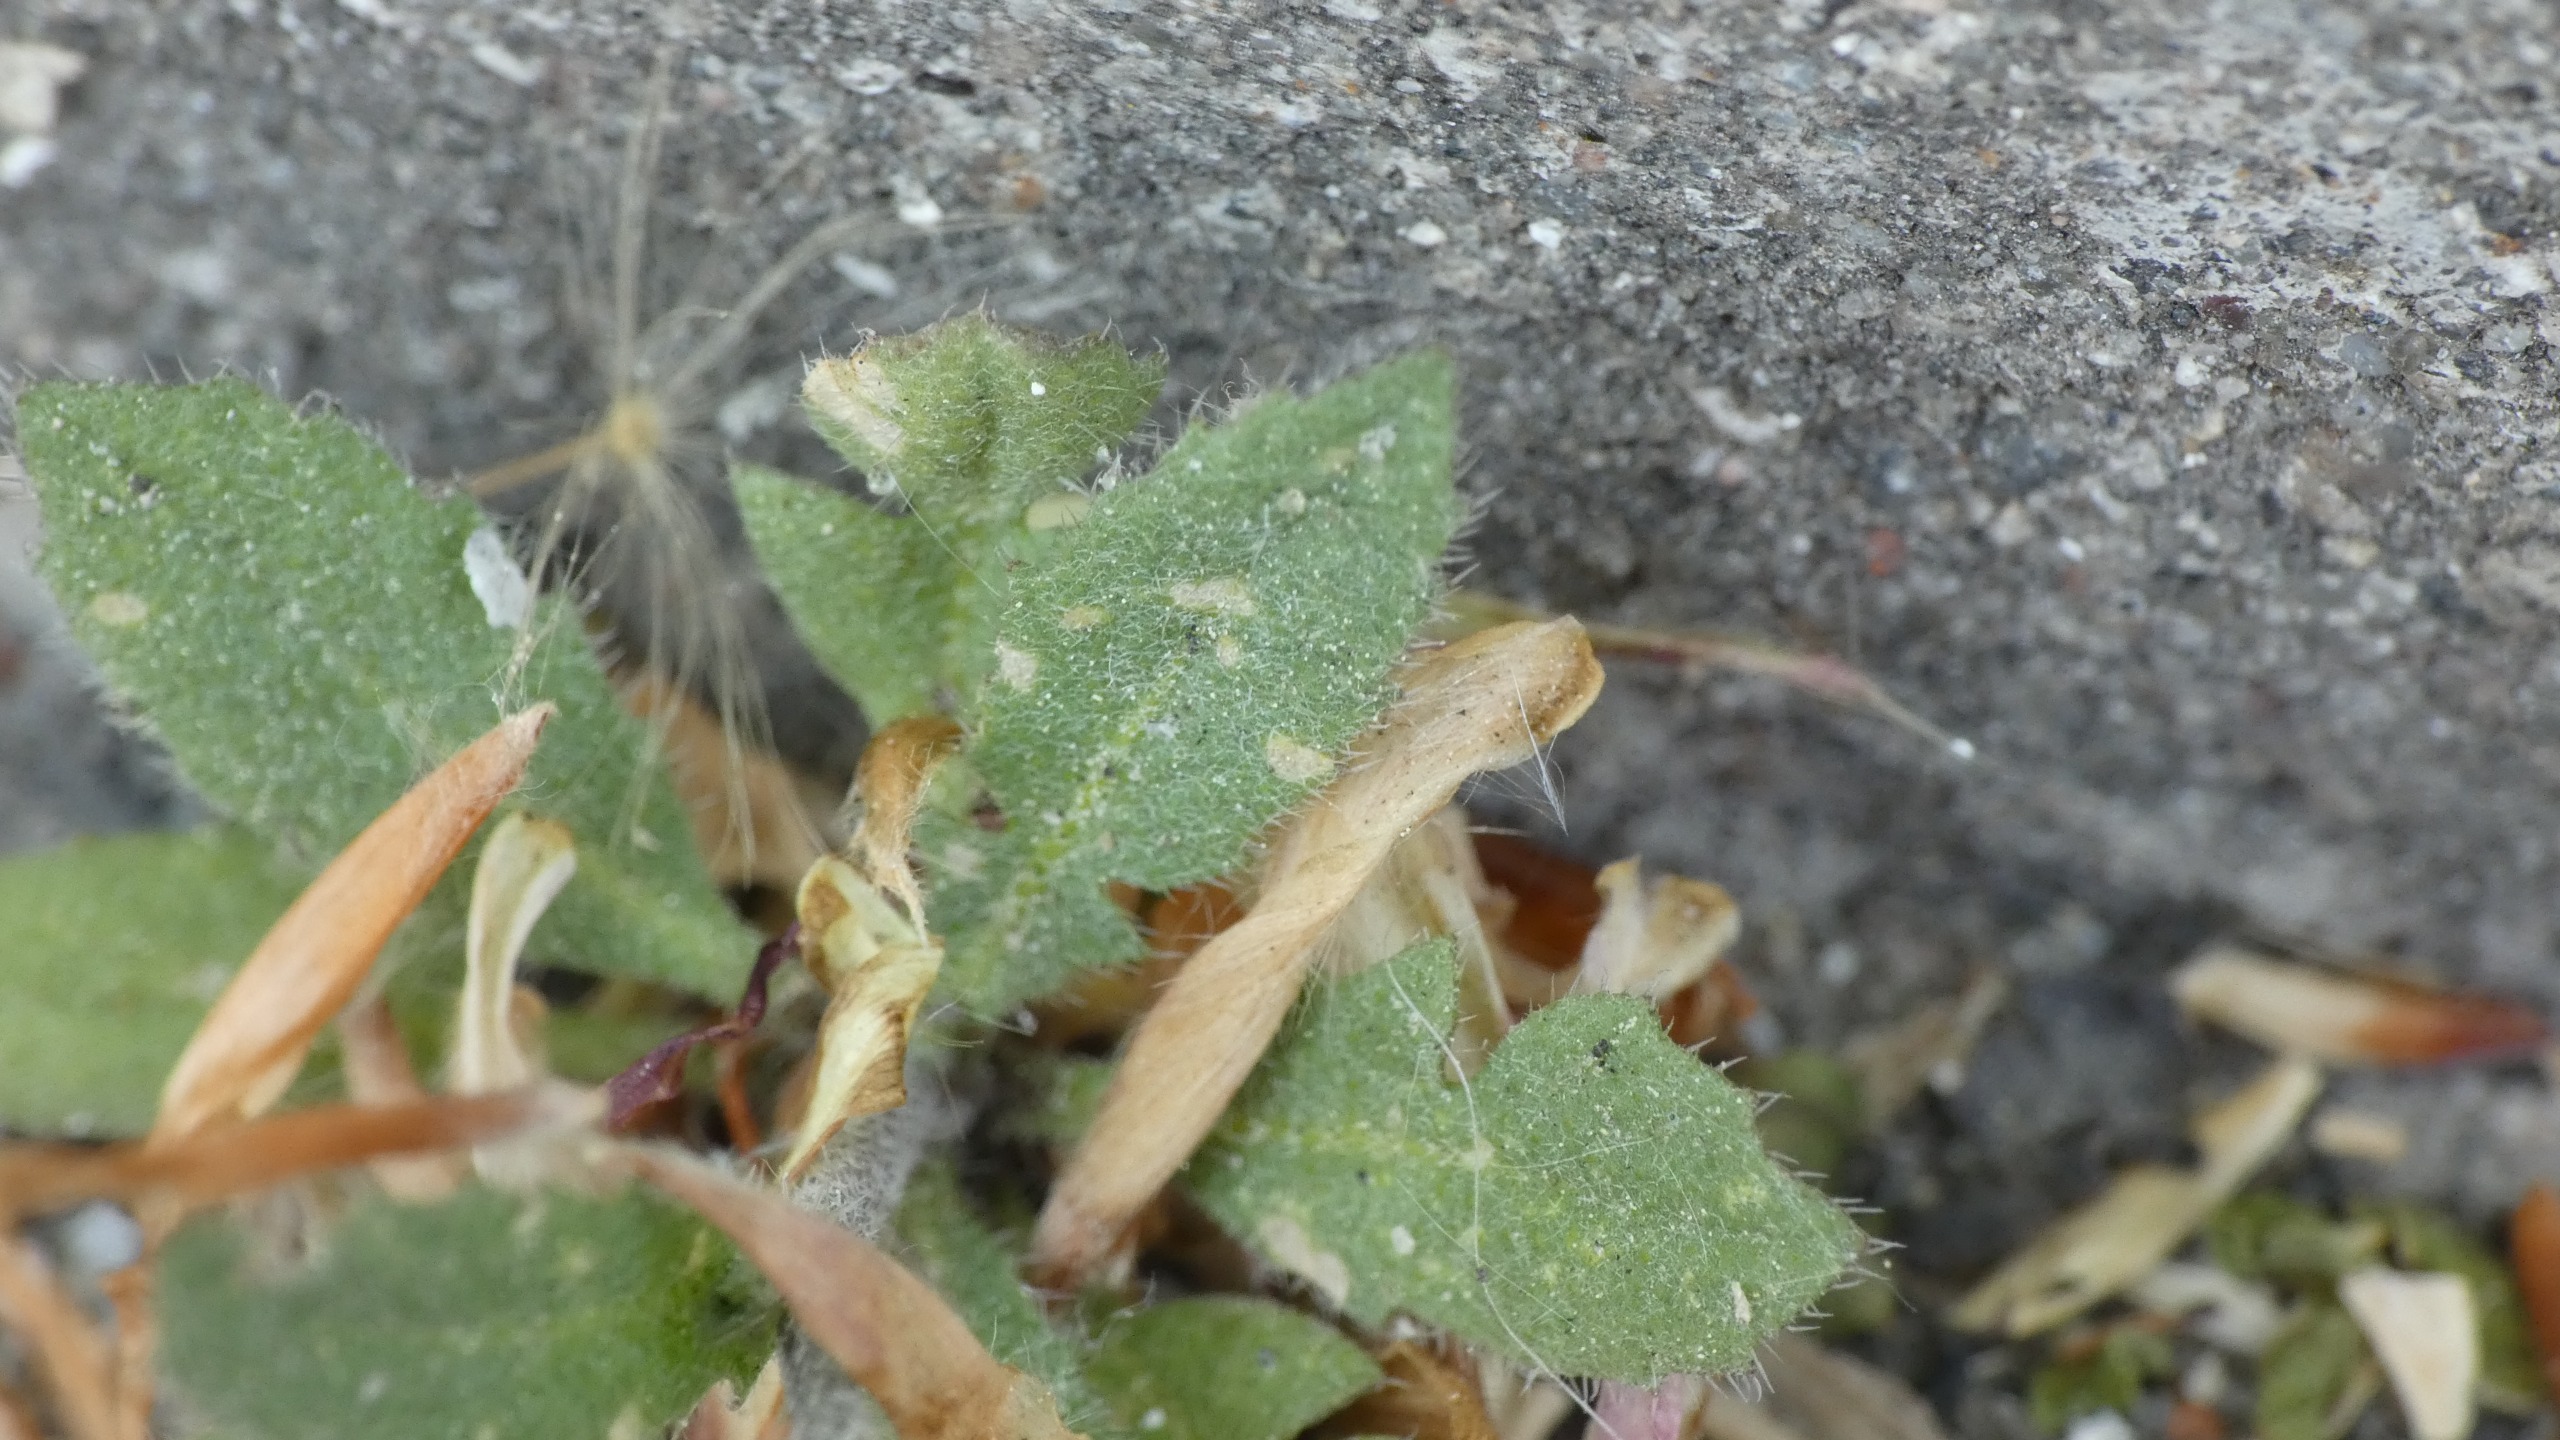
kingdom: Plantae
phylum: Tracheophyta
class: Magnoliopsida
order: Brassicales
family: Brassicaceae
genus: Capsella
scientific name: Capsella bursa-pastoris
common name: Hyrdetaske
